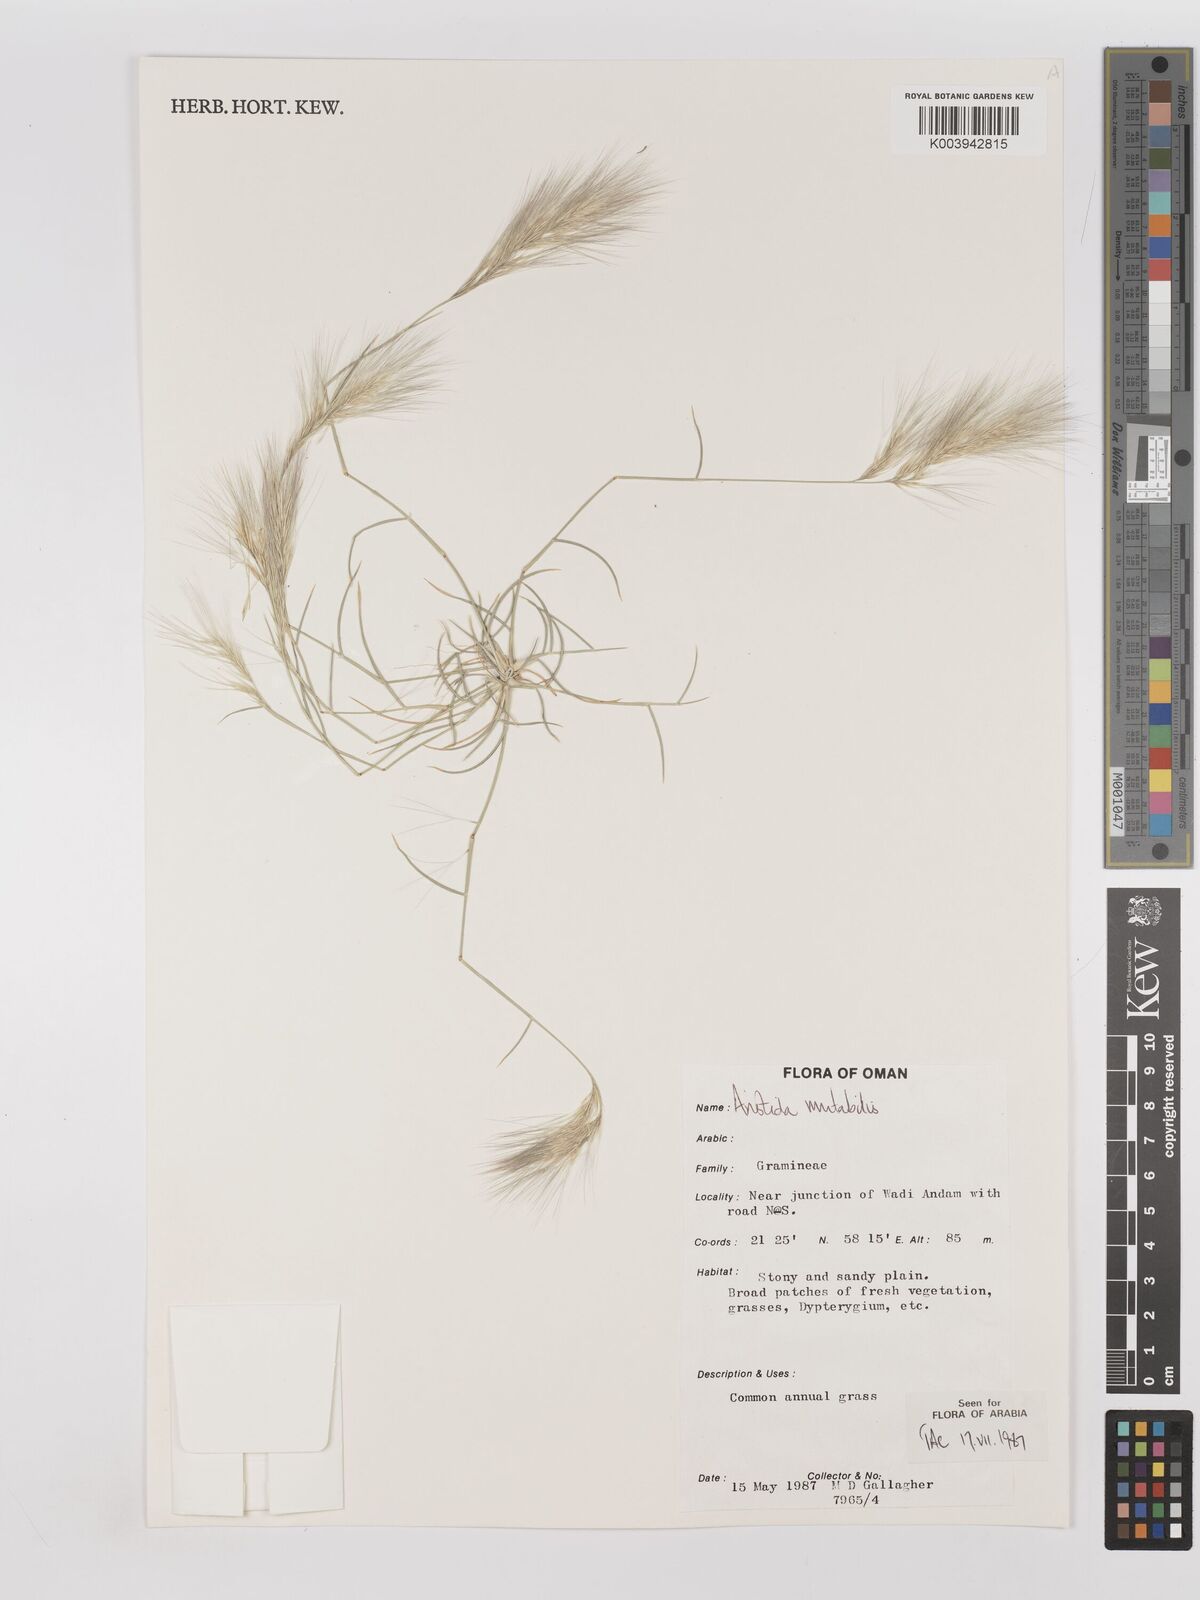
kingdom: Plantae
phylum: Tracheophyta
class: Liliopsida
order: Poales
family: Poaceae
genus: Aristida
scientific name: Aristida mutabilis
